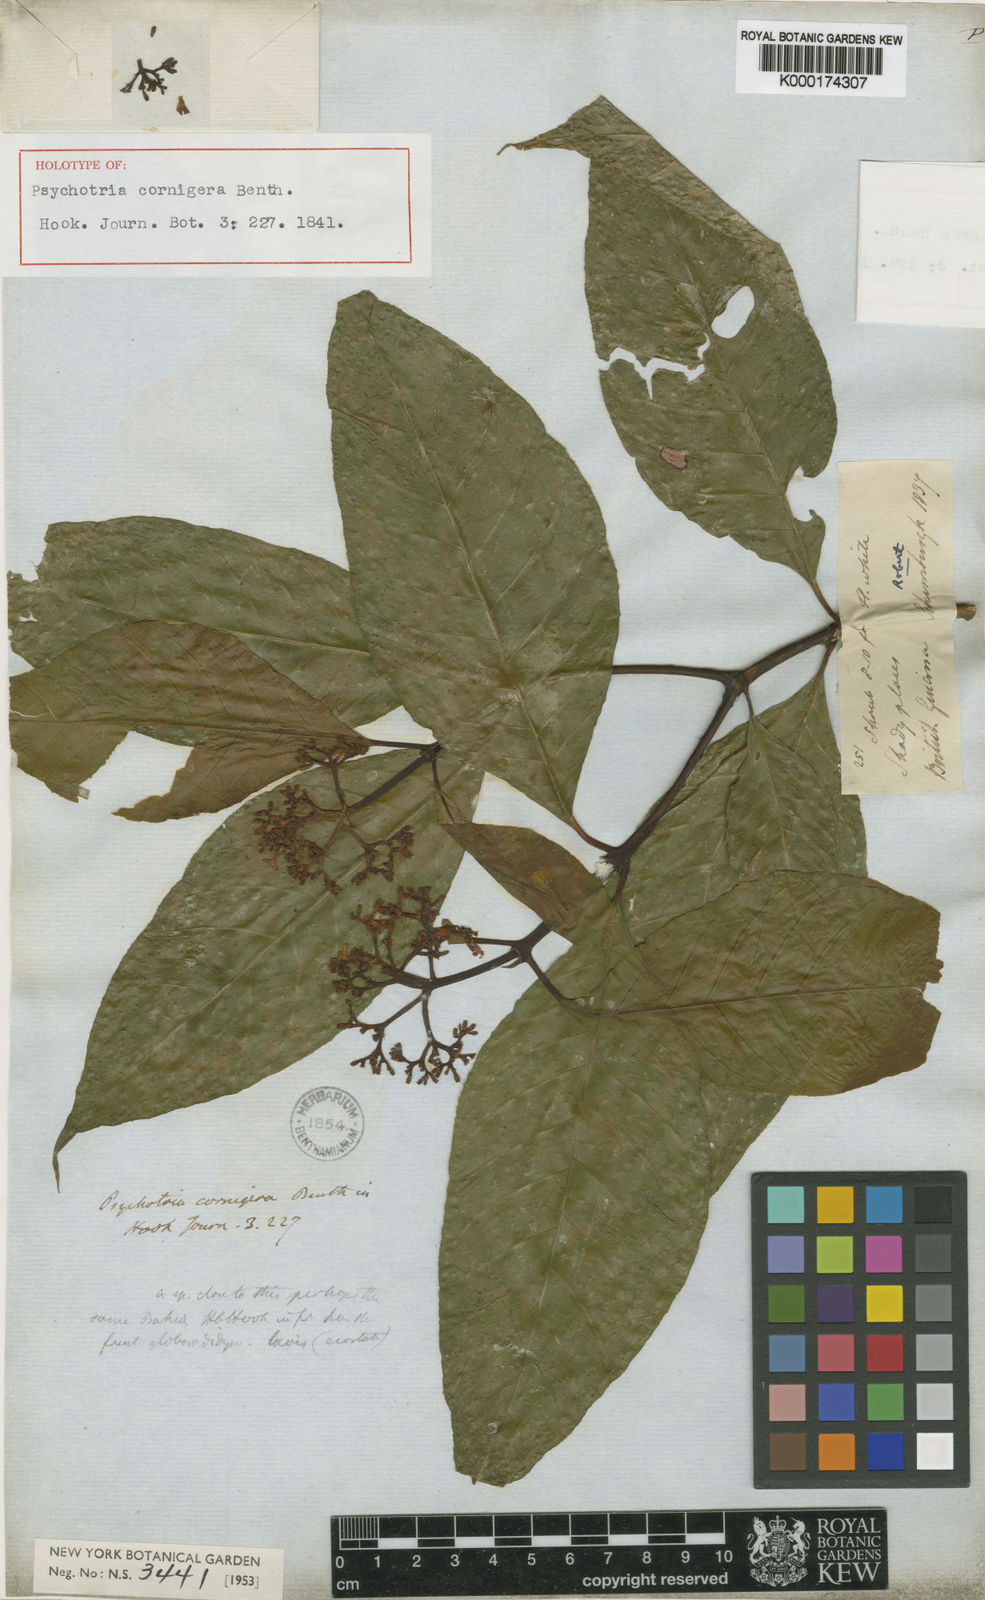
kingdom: Plantae
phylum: Tracheophyta
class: Magnoliopsida
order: Gentianales
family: Rubiaceae
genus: Palicourea
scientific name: Palicourea cuspidata
